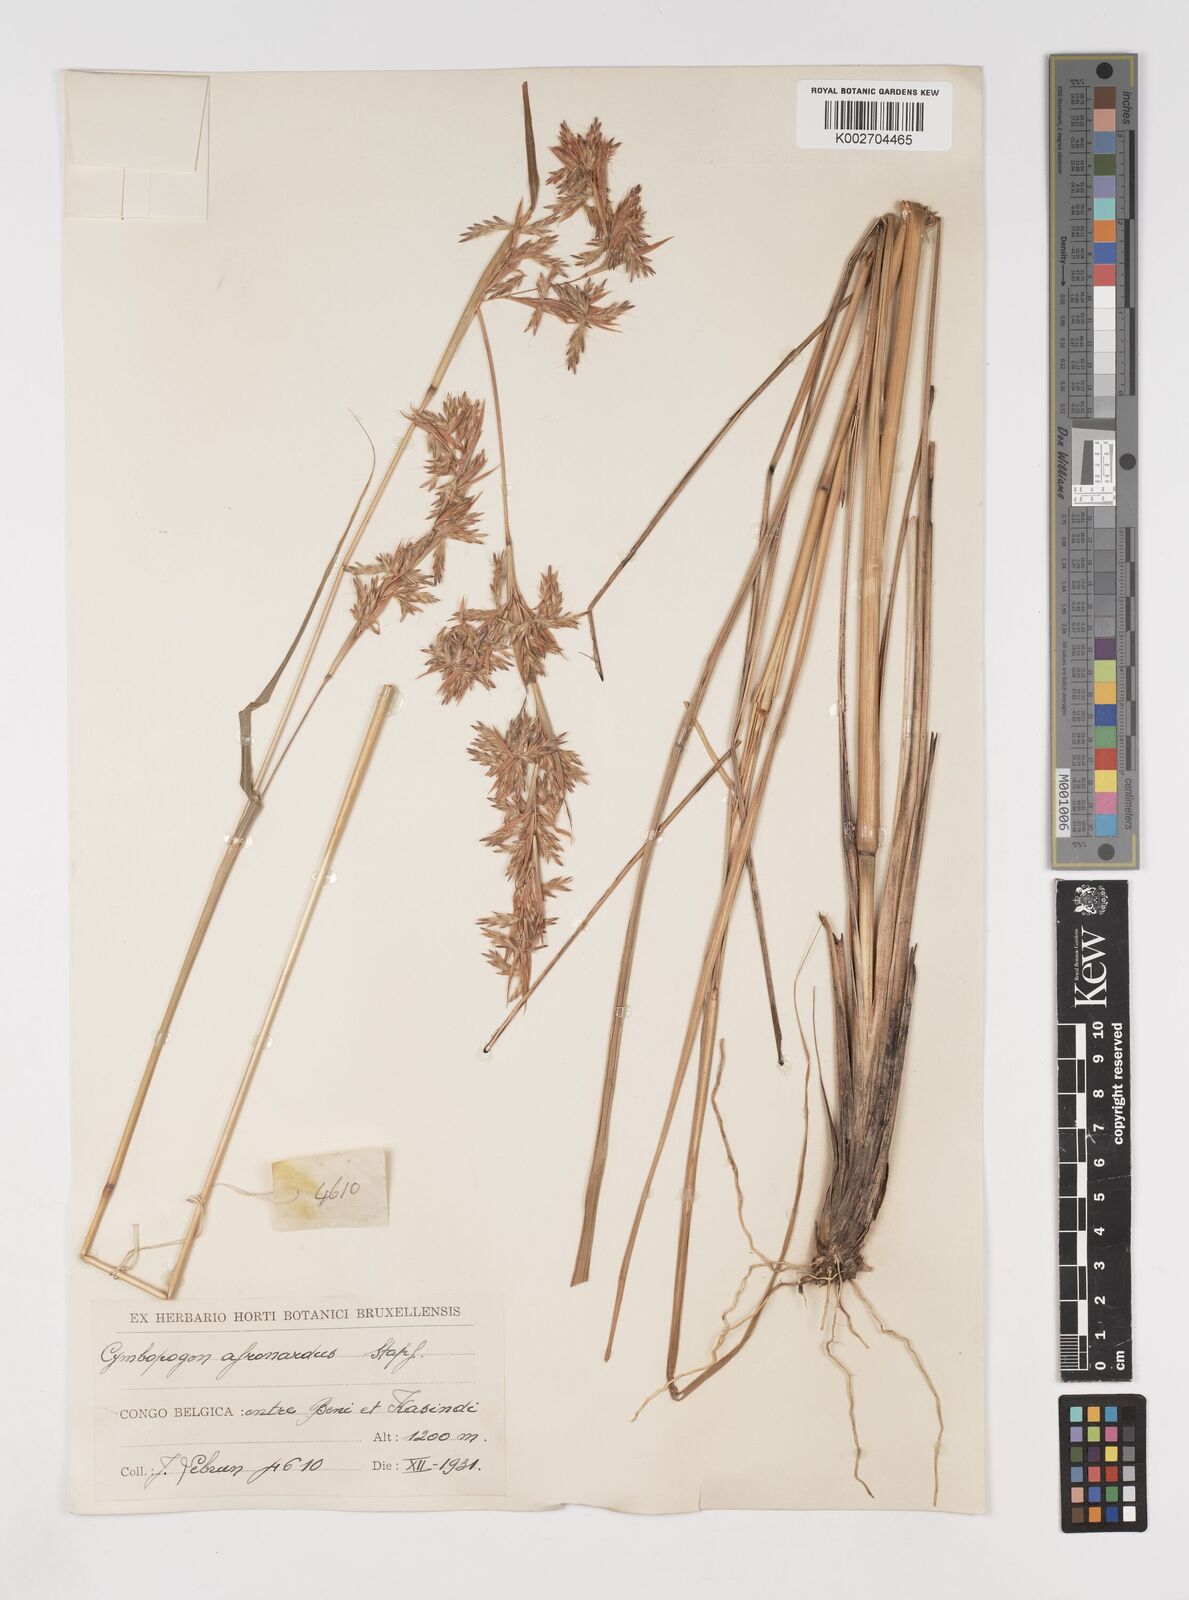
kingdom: Plantae
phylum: Tracheophyta
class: Liliopsida
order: Poales
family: Poaceae
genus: Cymbopogon
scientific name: Cymbopogon nardus
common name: Giant turpentine grass
